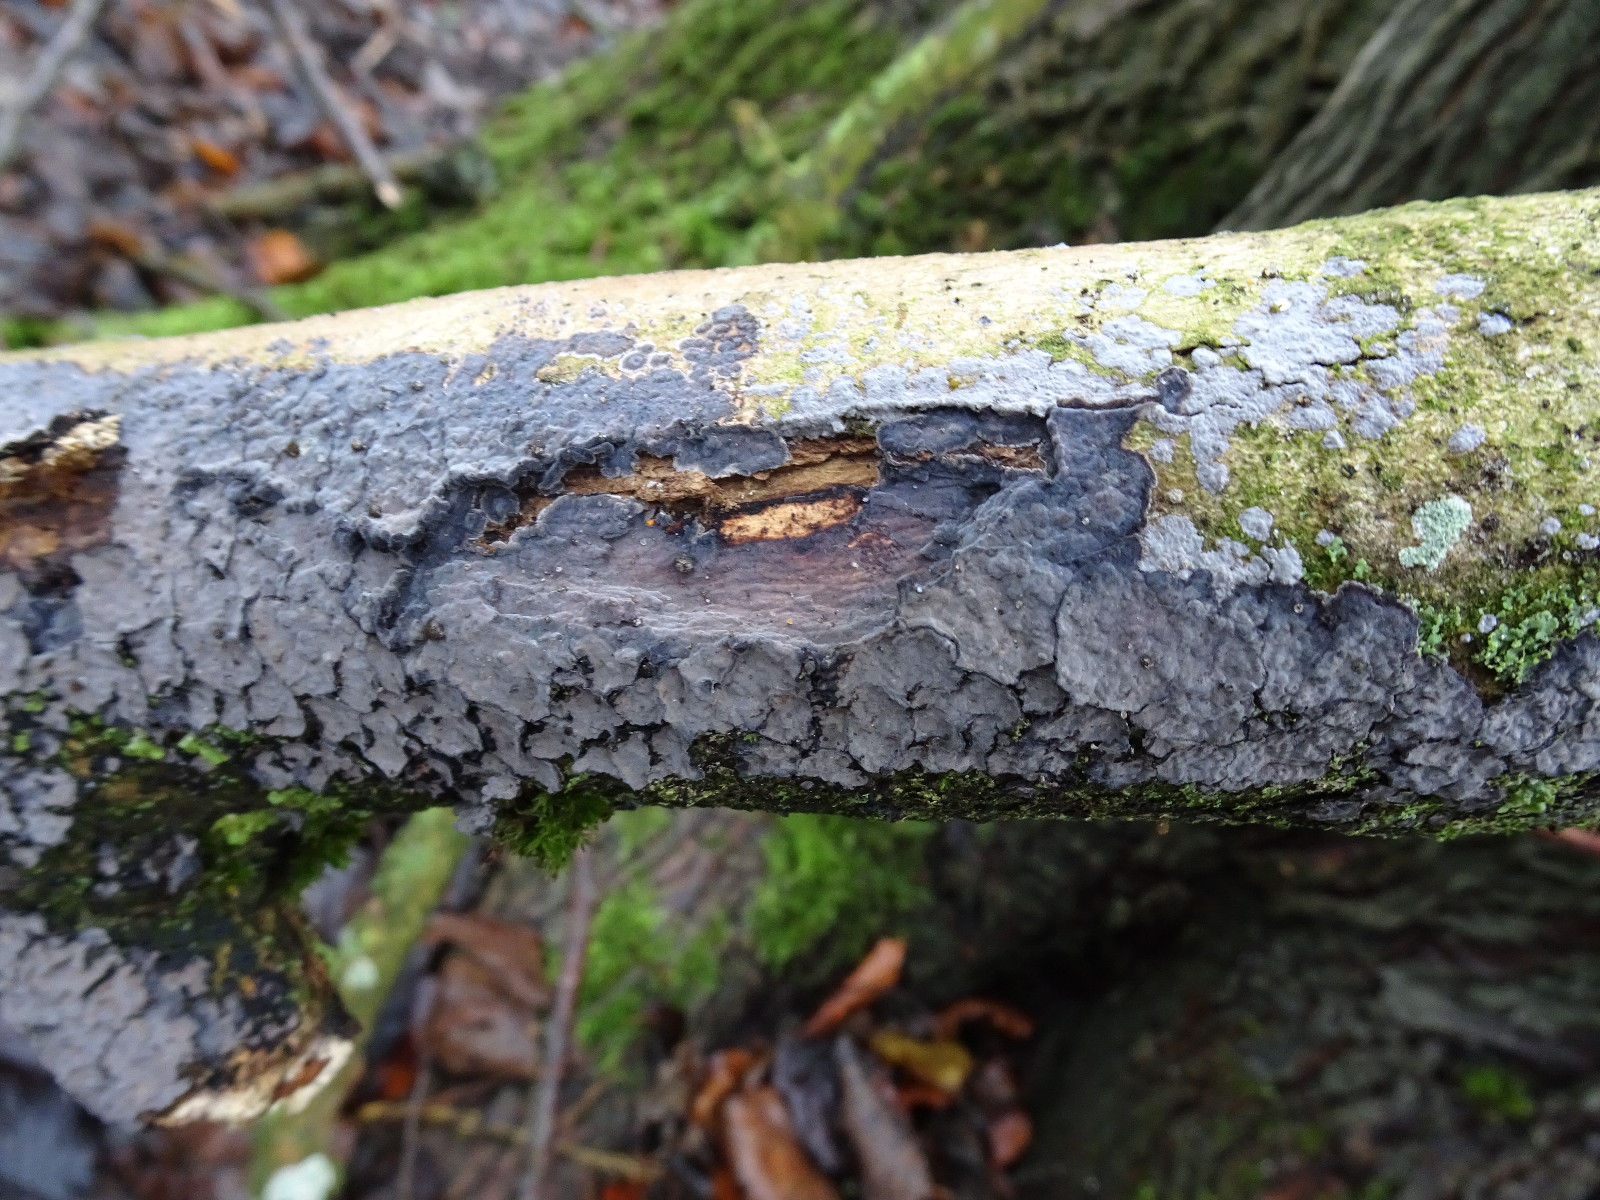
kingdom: Fungi
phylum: Basidiomycota
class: Agaricomycetes
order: Russulales
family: Peniophoraceae
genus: Peniophora
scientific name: Peniophora
